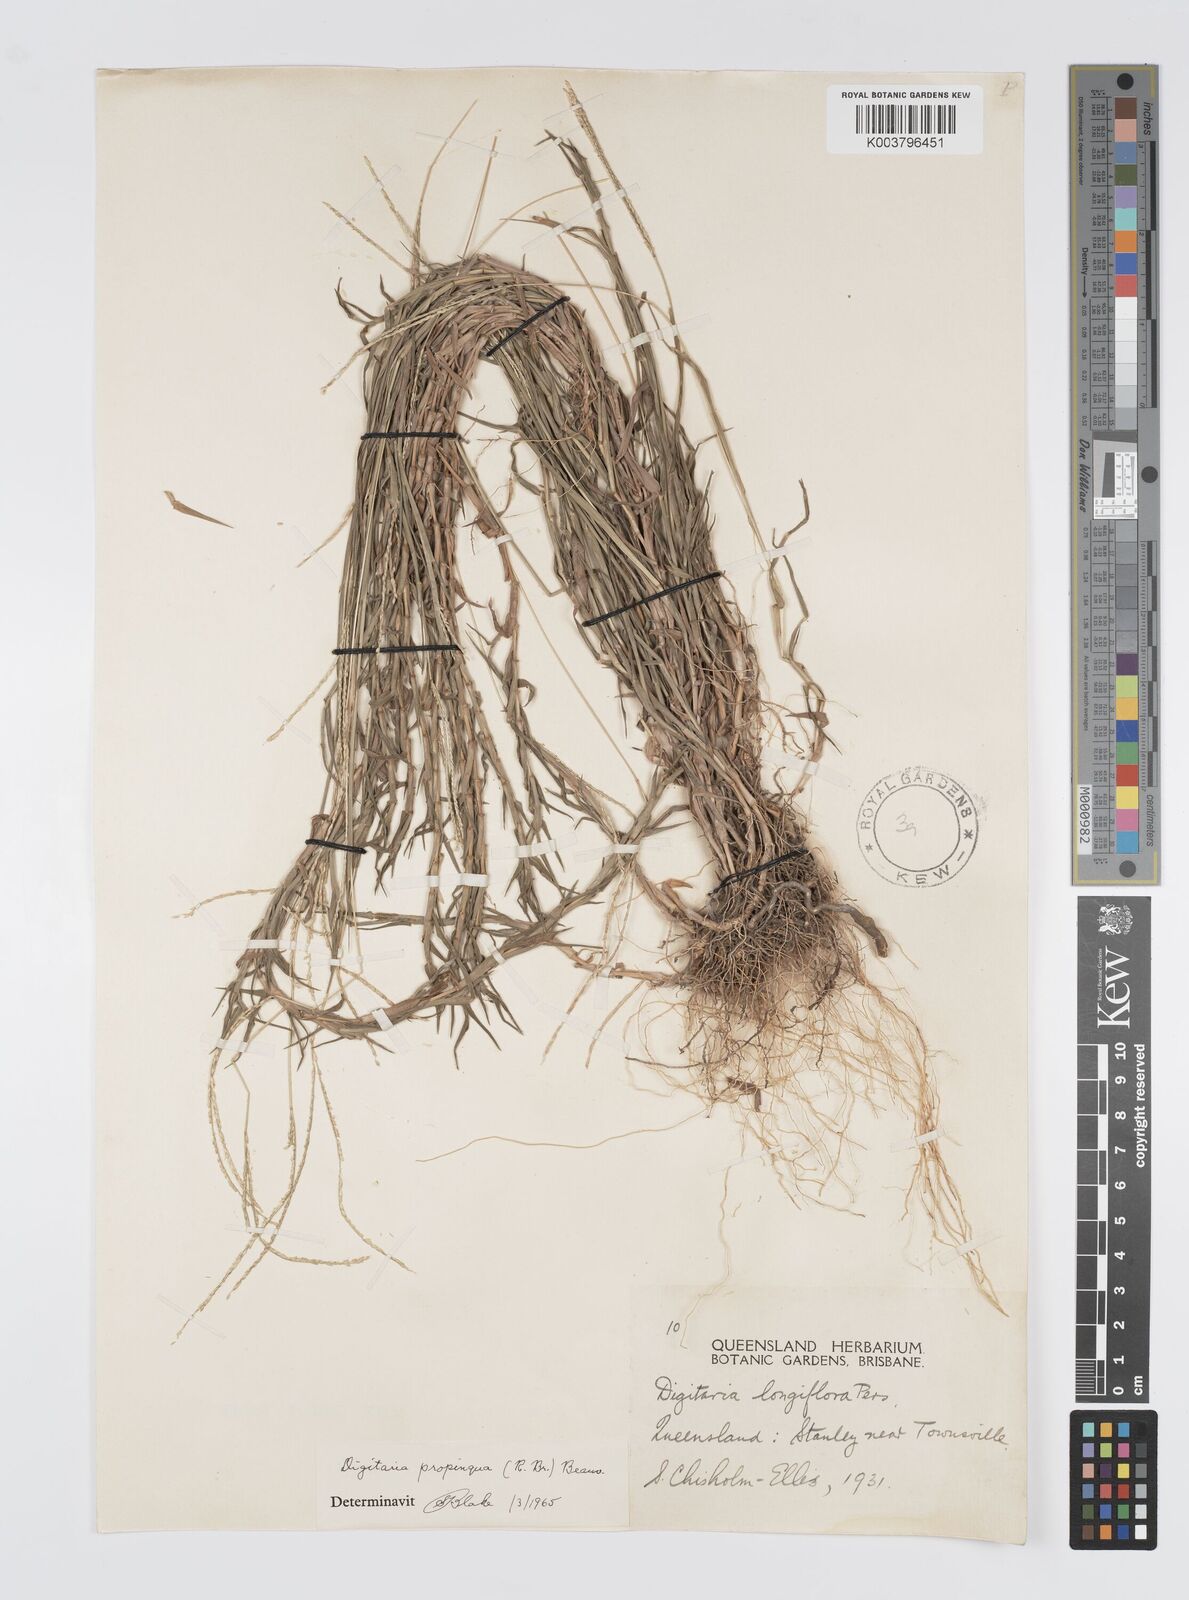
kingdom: Plantae
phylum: Tracheophyta
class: Liliopsida
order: Poales
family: Poaceae
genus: Digitaria
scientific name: Digitaria longiflora
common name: Wire crabgrass
